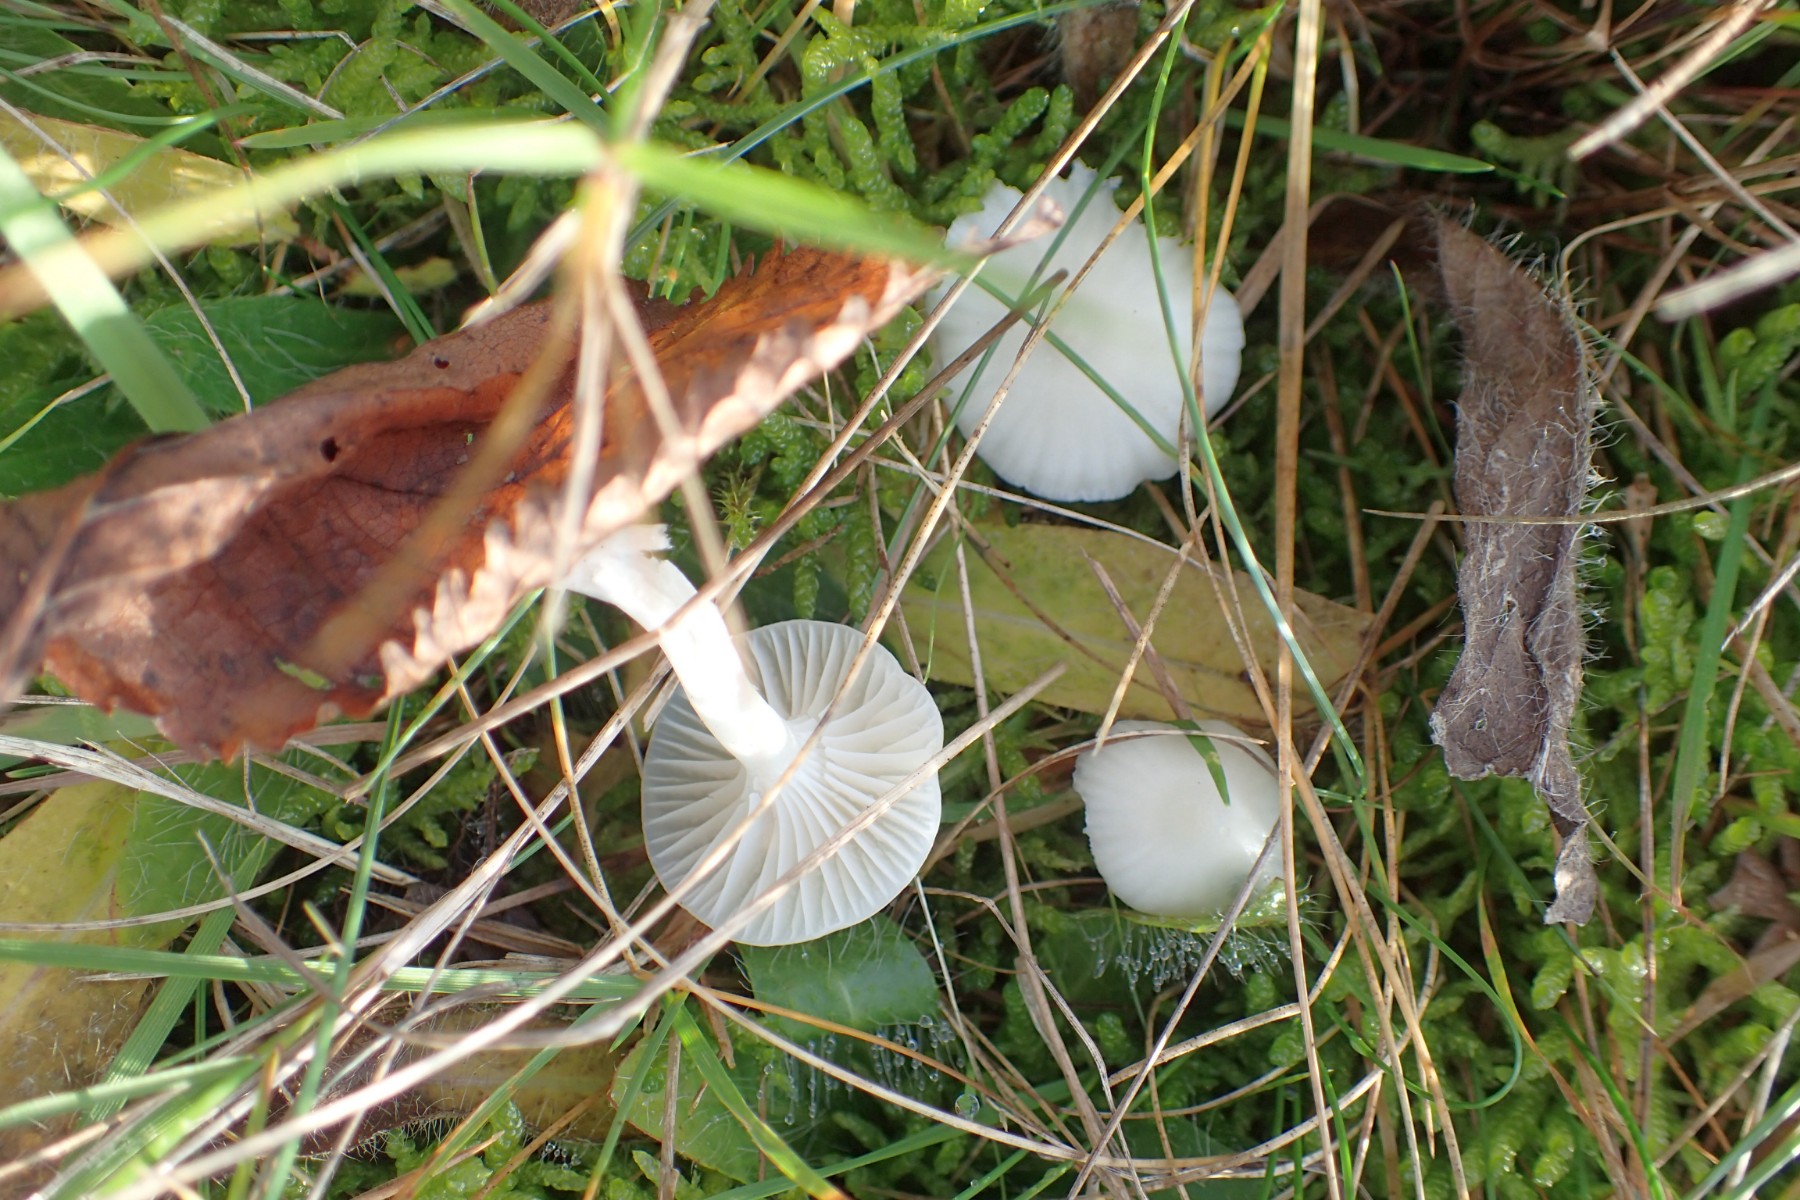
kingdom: Fungi
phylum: Basidiomycota
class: Agaricomycetes
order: Agaricales
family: Hygrophoraceae
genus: Cuphophyllus
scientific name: Cuphophyllus virgineus
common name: snehvid vokshat
